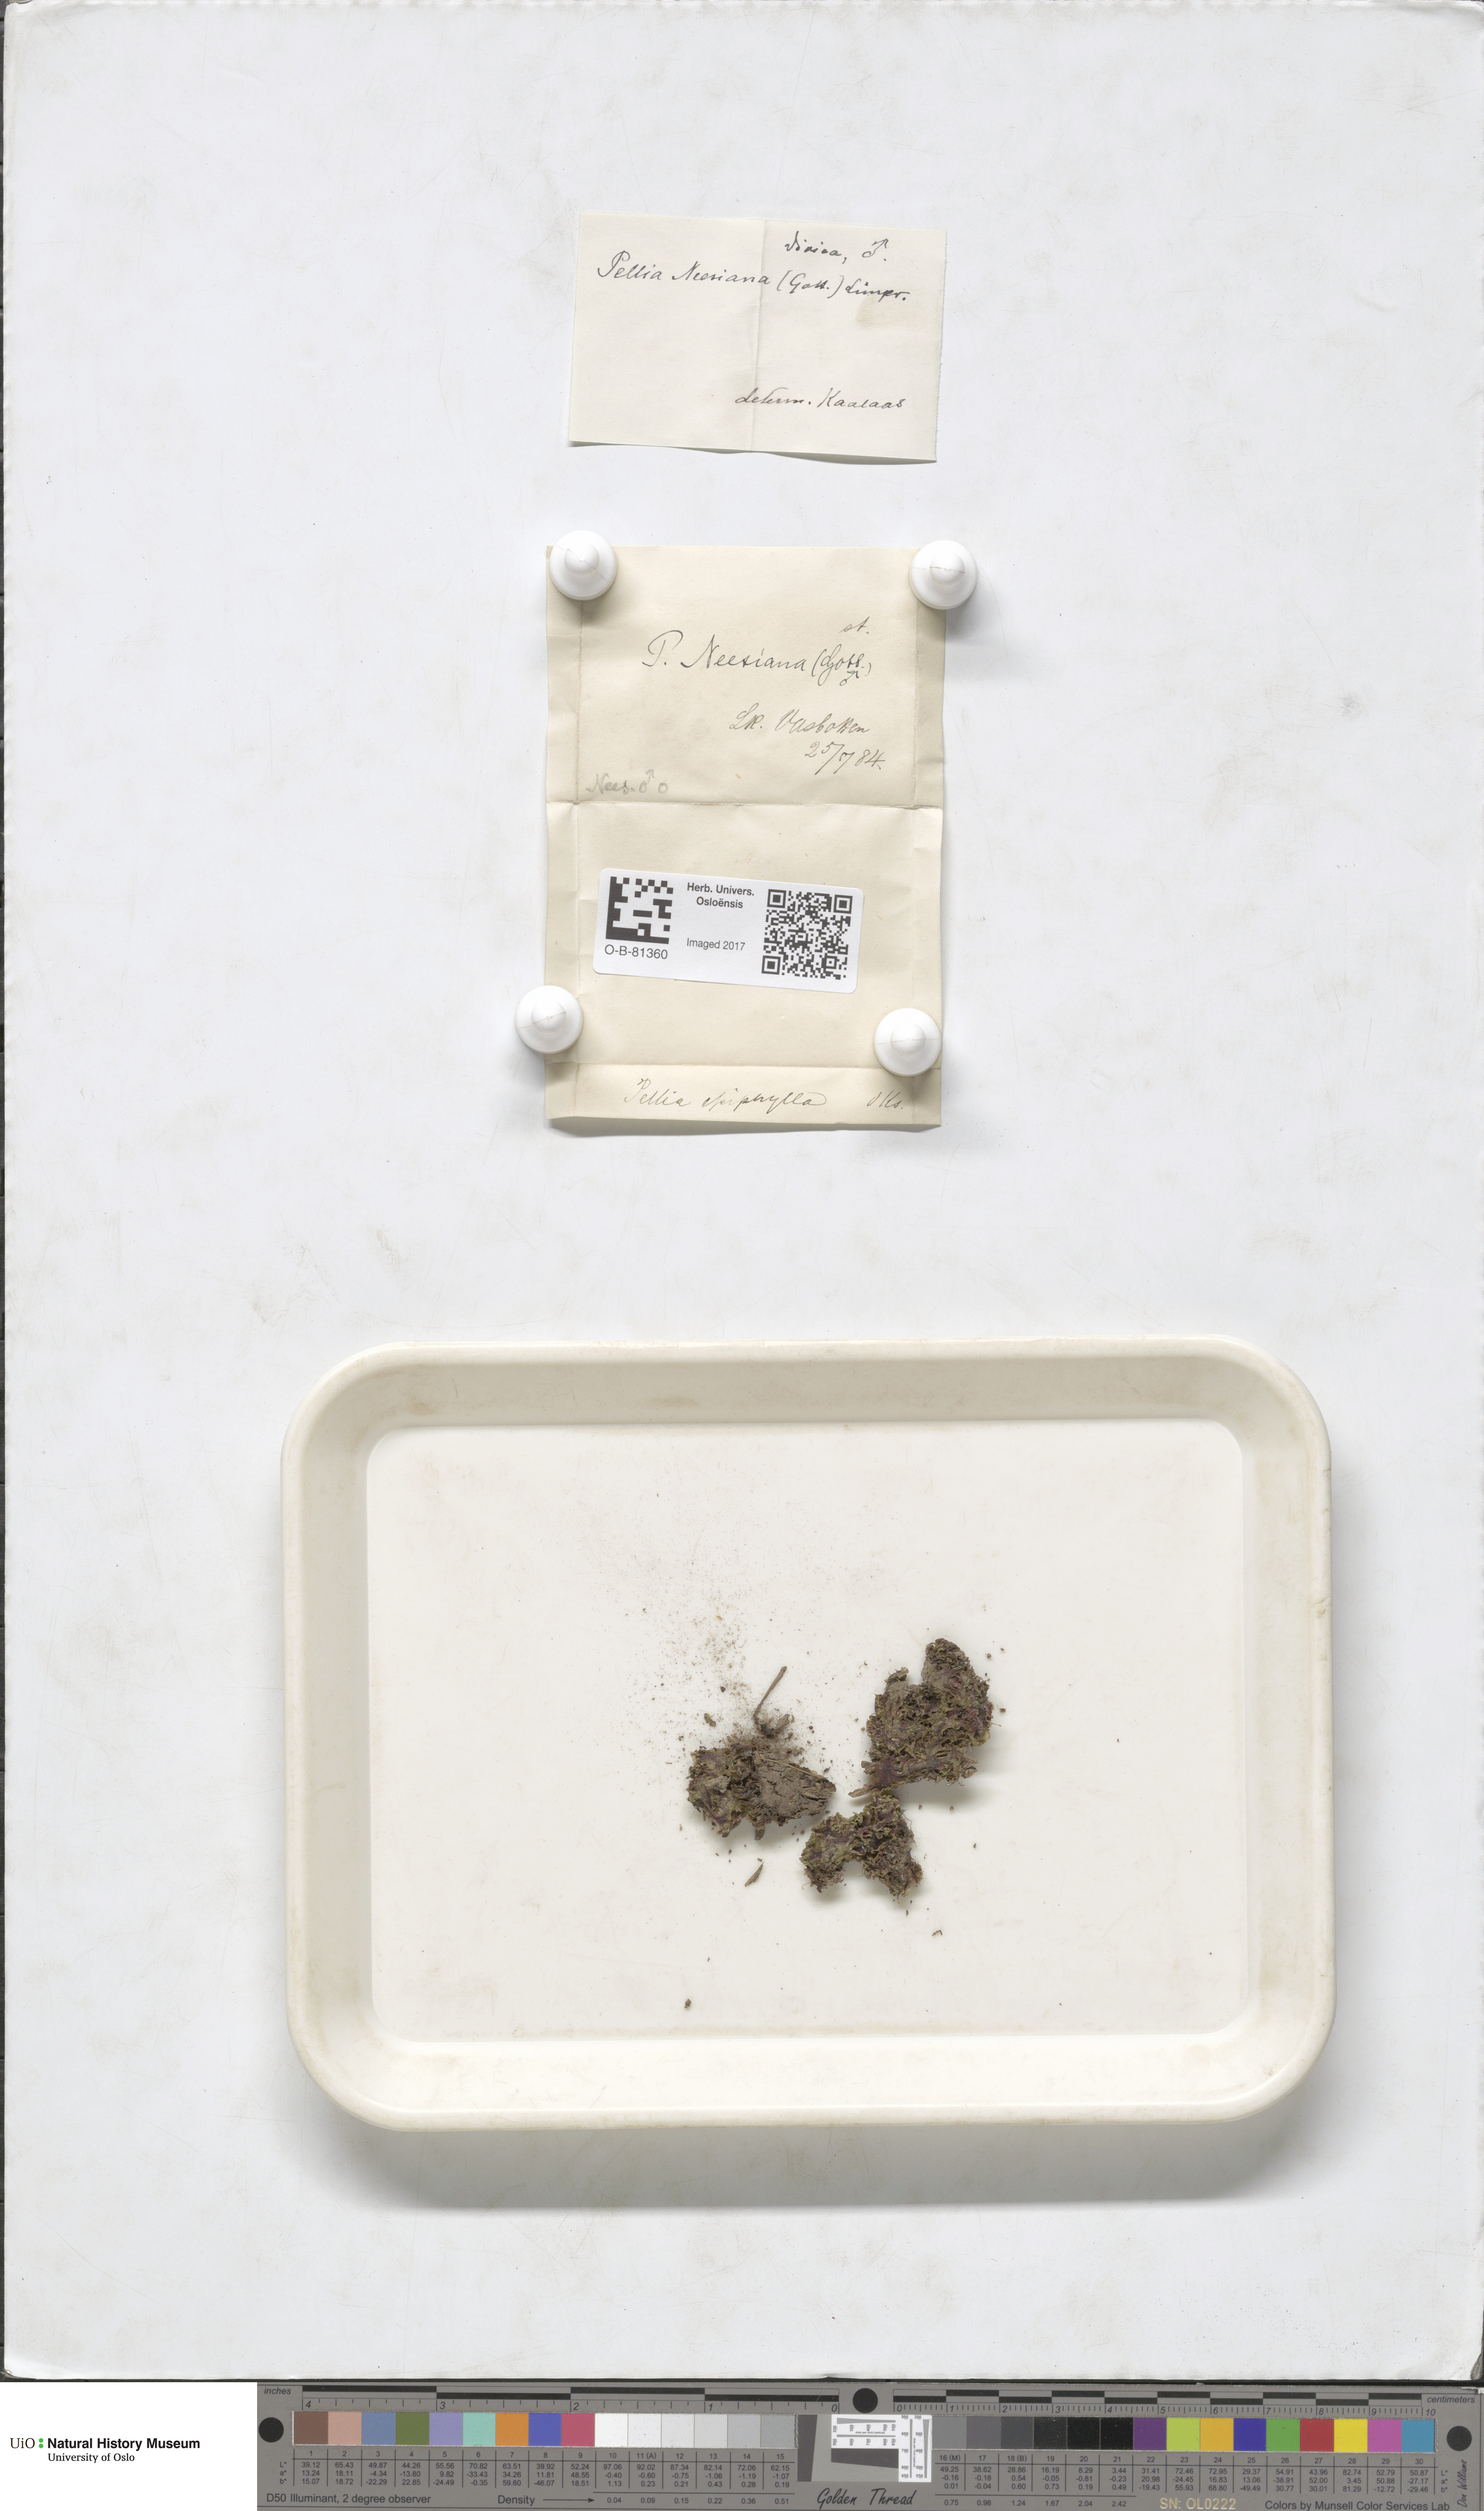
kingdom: Plantae
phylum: Marchantiophyta
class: Jungermanniopsida
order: Pelliales
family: Pelliaceae
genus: Pellia
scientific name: Pellia neesiana
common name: Nees  pellia
